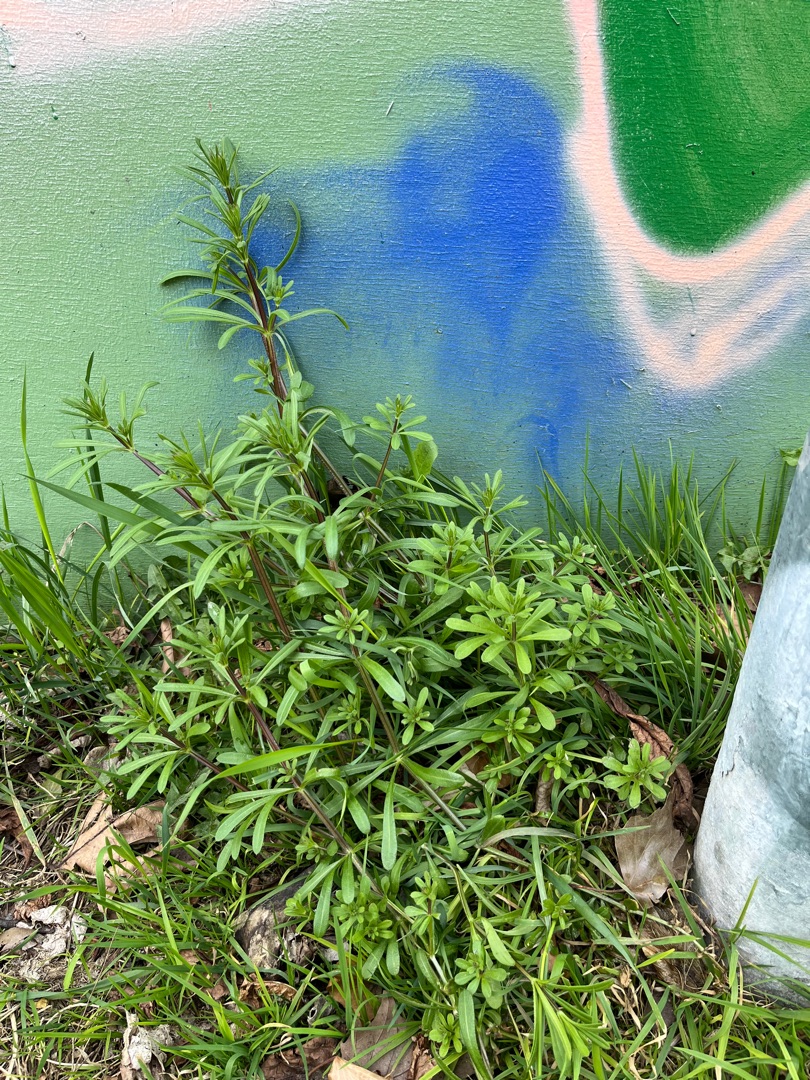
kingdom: Plantae
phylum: Tracheophyta
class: Magnoliopsida
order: Gentianales
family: Rubiaceae
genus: Galium
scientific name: Galium aparine
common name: Burre-snerre
